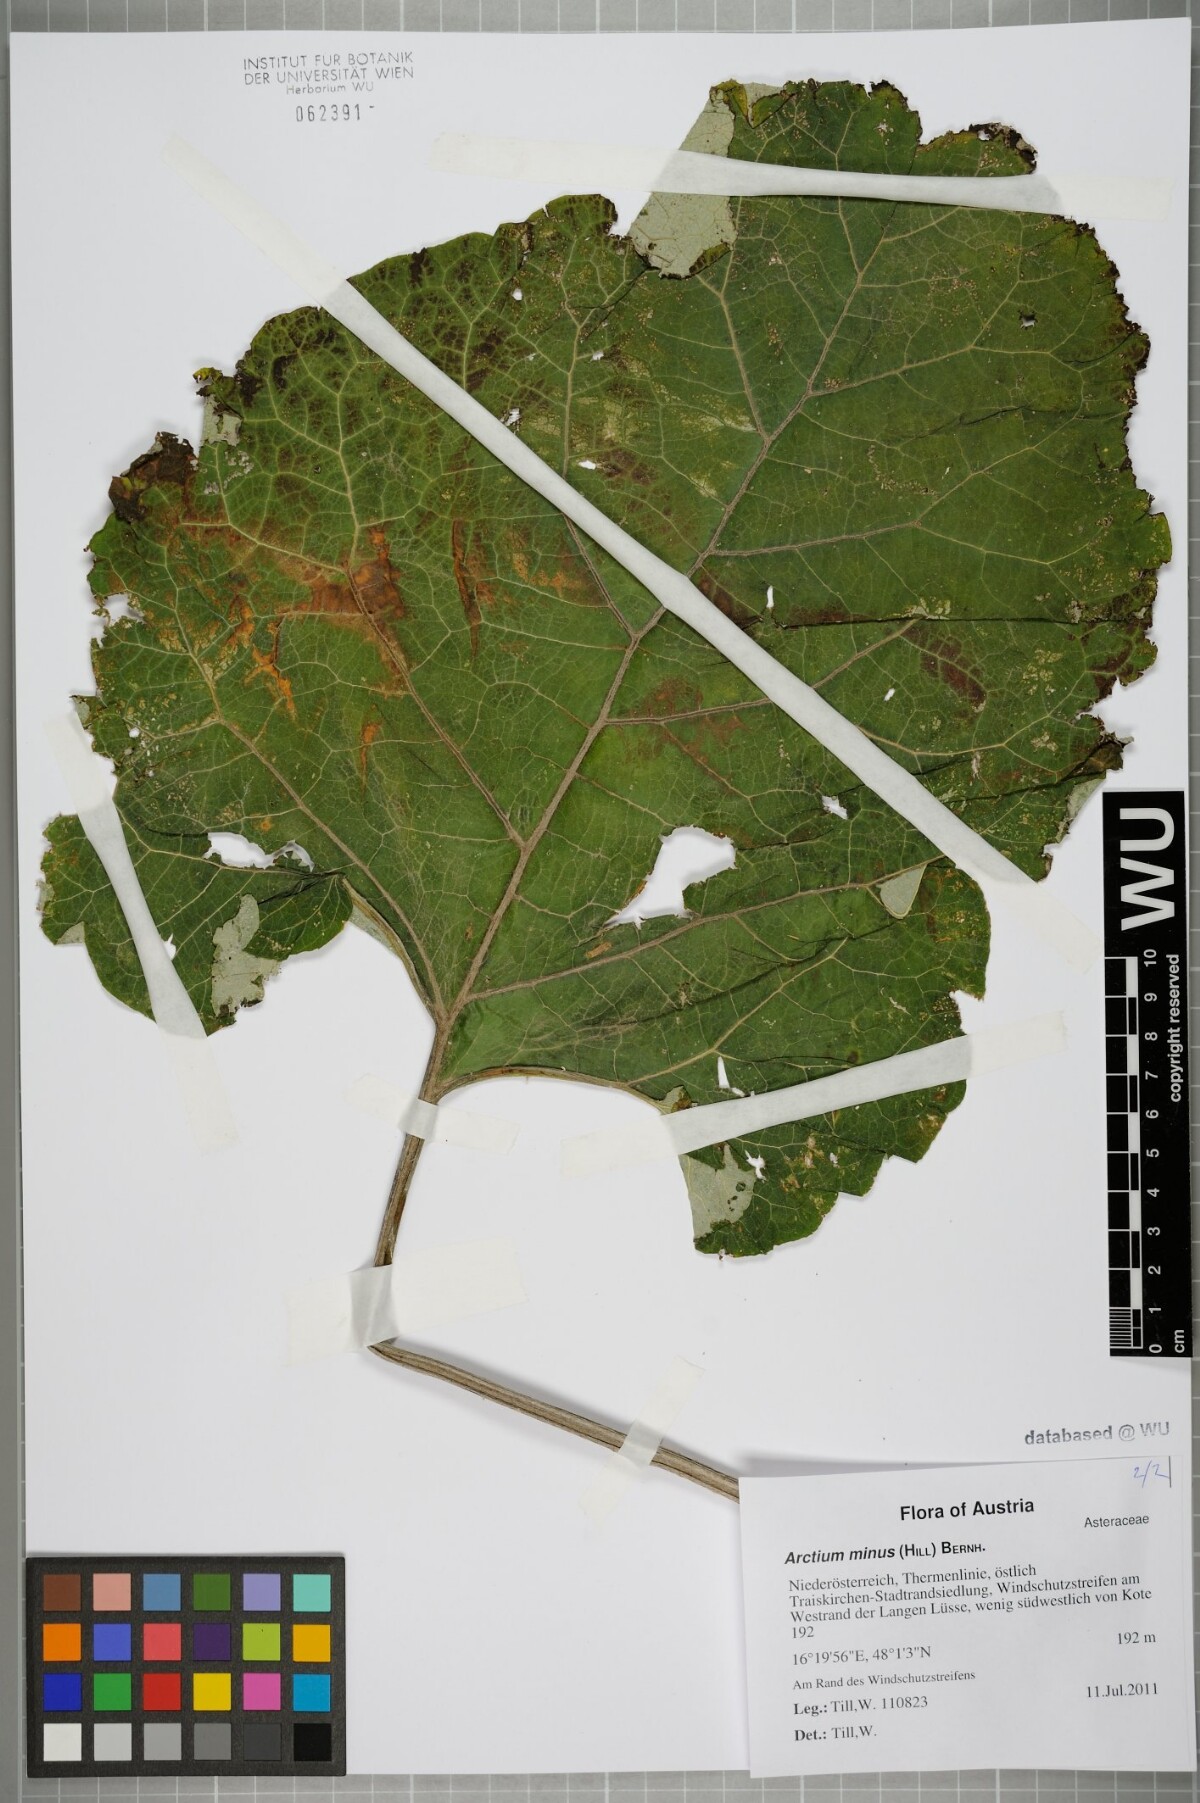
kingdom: Plantae
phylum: Tracheophyta
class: Magnoliopsida
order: Asterales
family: Asteraceae
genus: Arctium
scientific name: Arctium minus
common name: Lesser burdock
